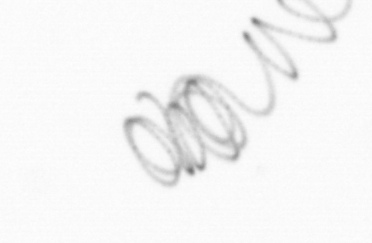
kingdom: Chromista
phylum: Ochrophyta
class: Bacillariophyceae
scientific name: Bacillariophyceae
